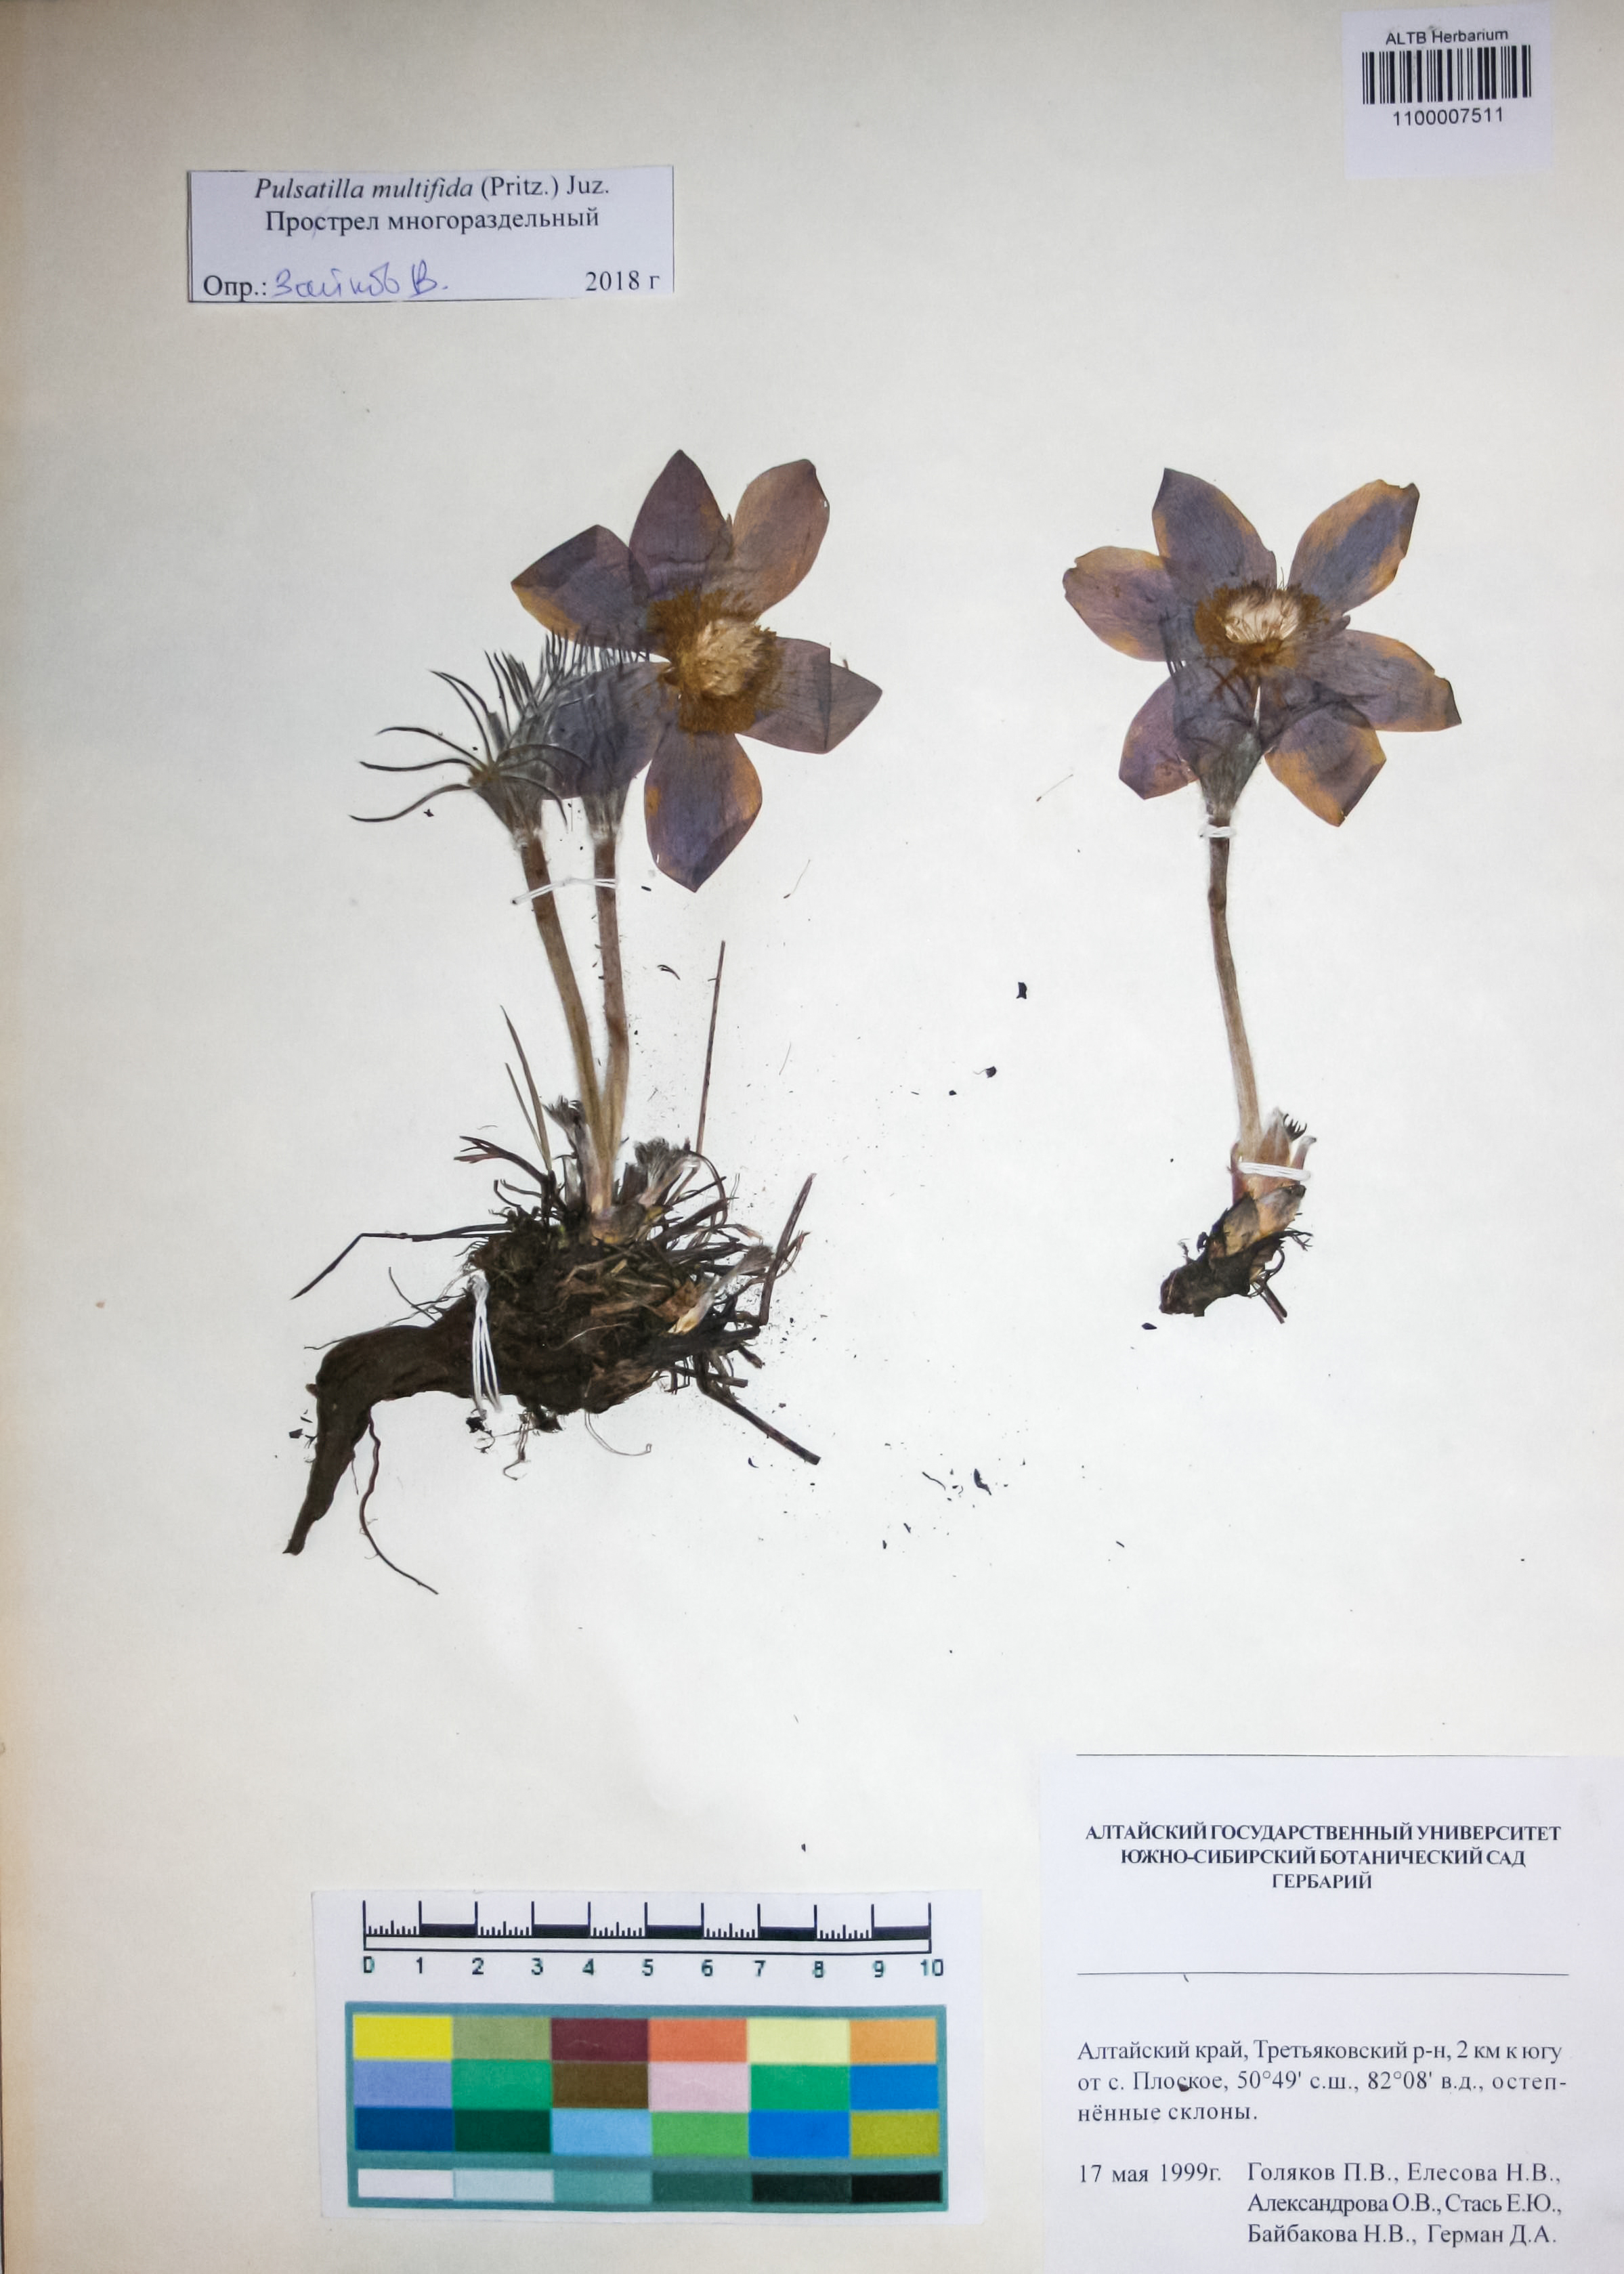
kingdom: Plantae
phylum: Tracheophyta
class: Magnoliopsida
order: Ranunculales
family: Ranunculaceae
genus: Pulsatilla
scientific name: Pulsatilla patens
